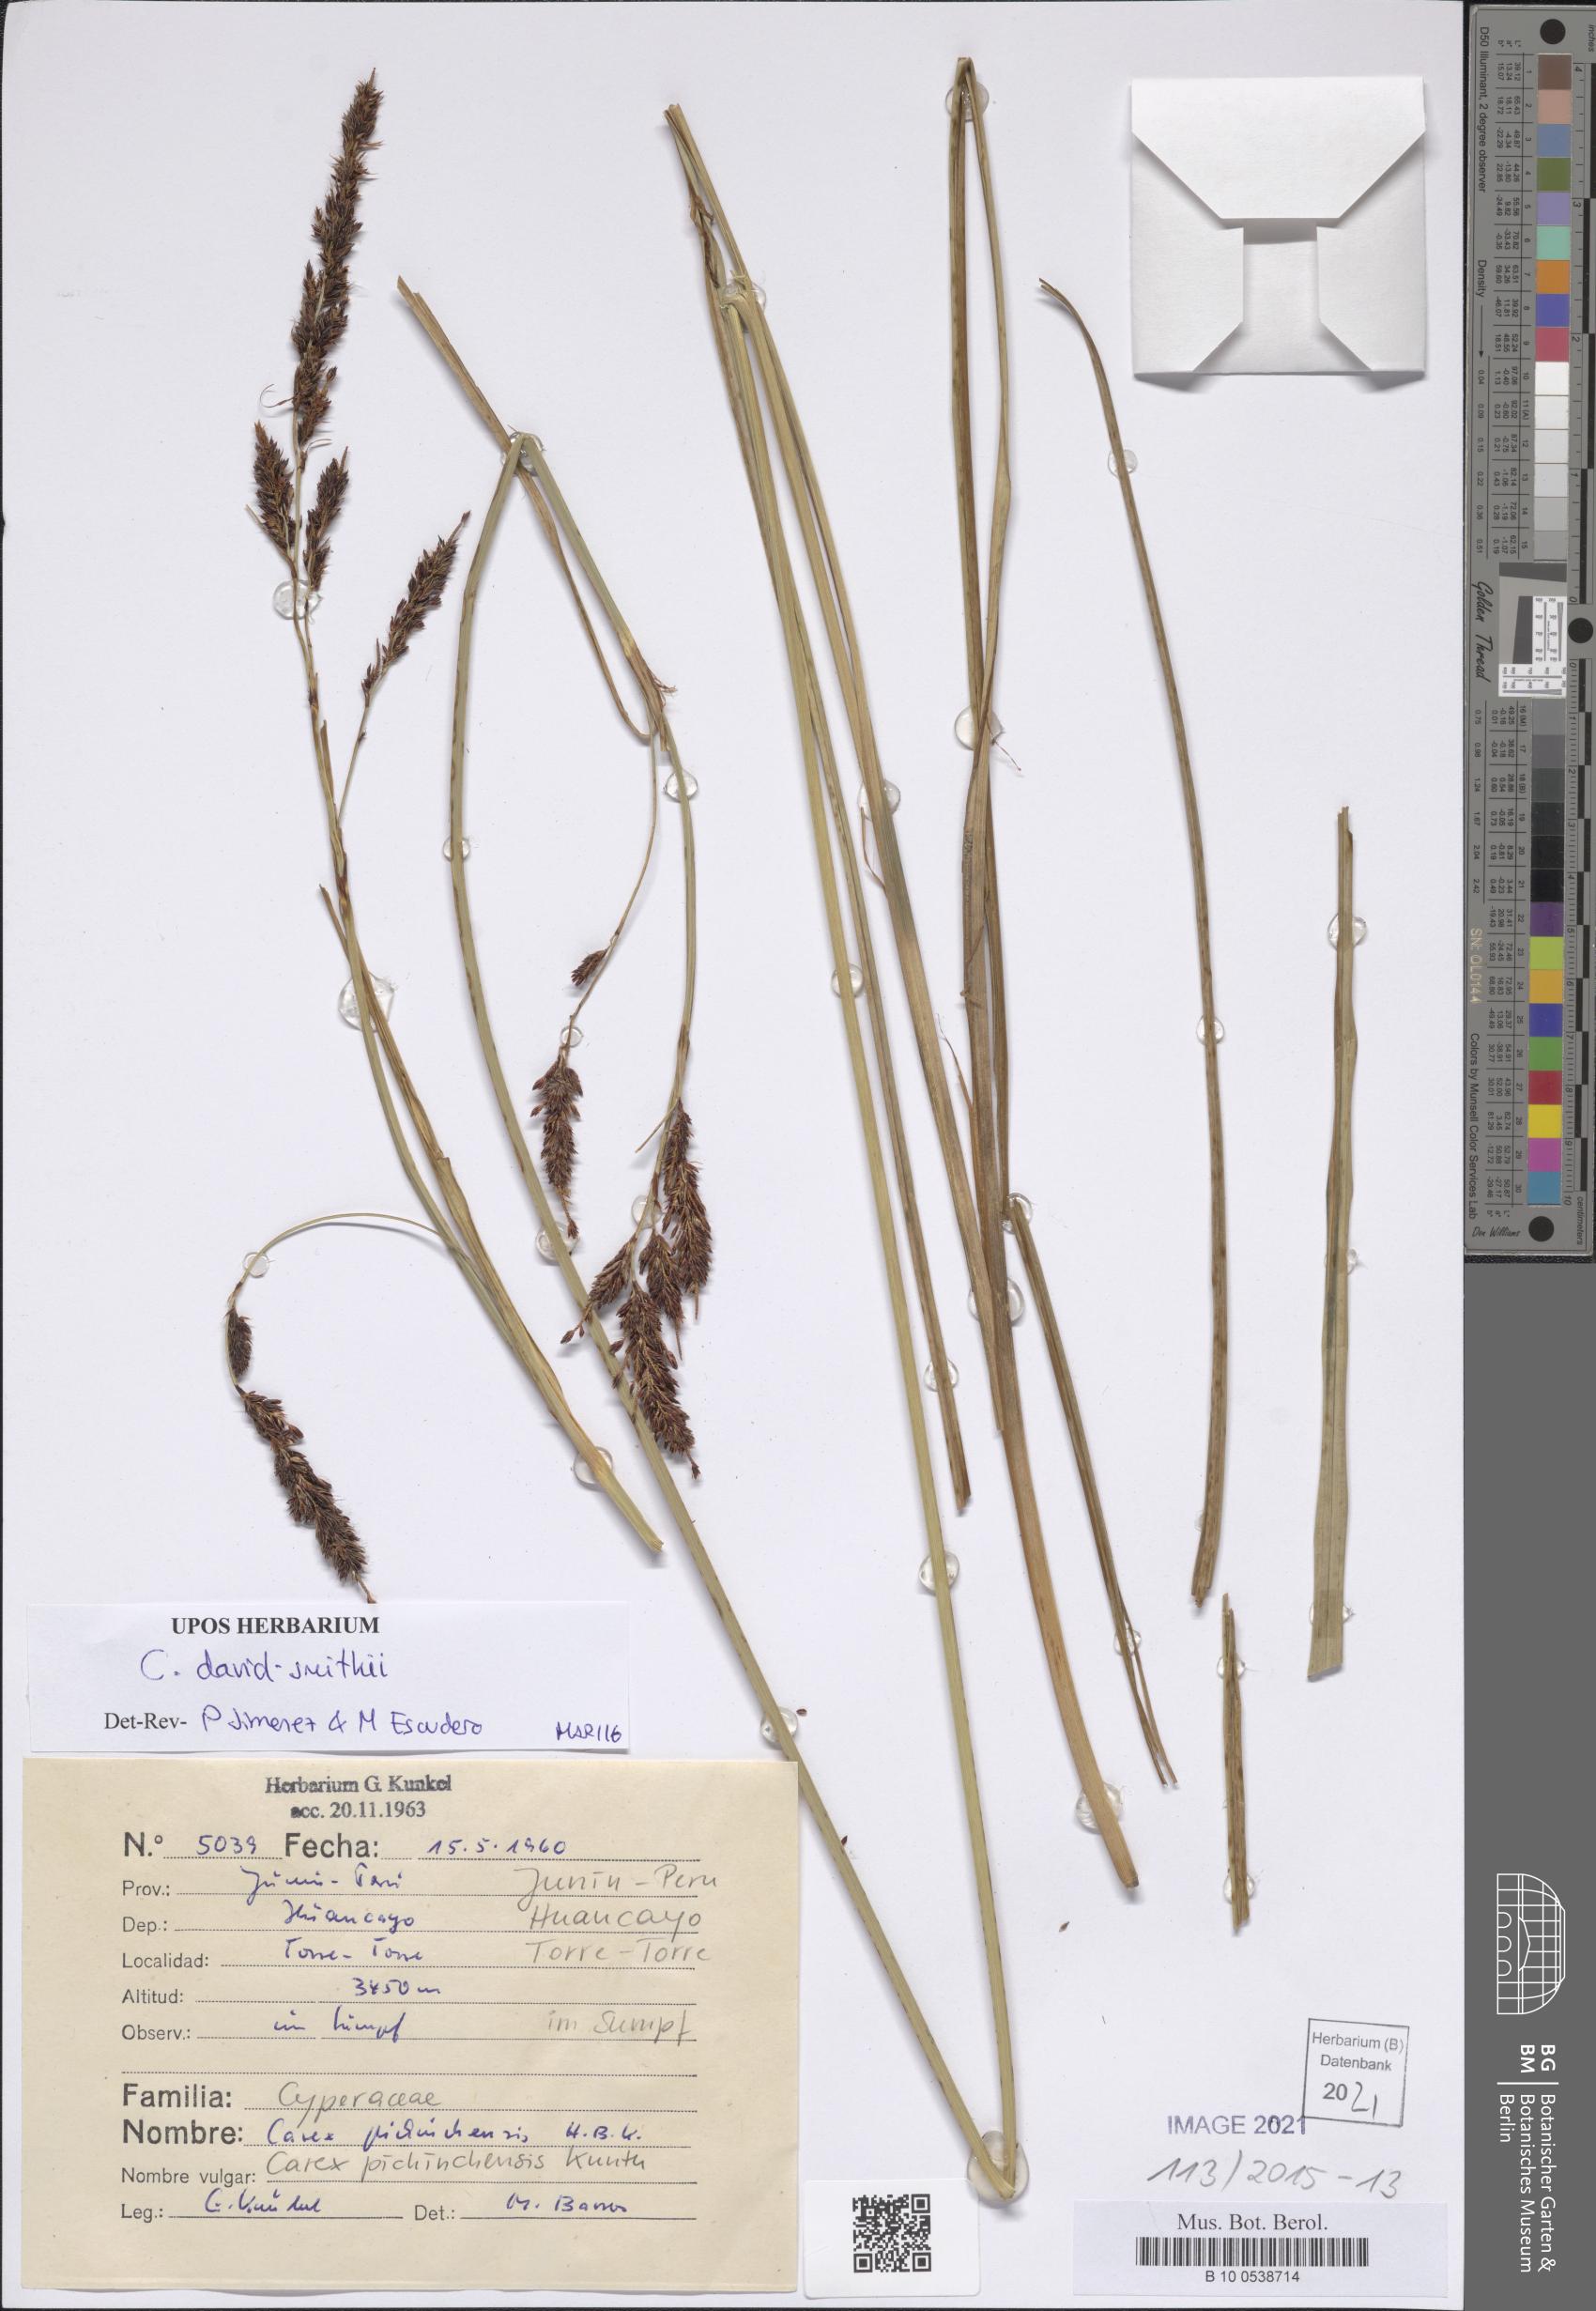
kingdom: Plantae
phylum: Tracheophyta
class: Liliopsida
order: Poales
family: Cyperaceae
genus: Carex
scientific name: Carex david-smithii
